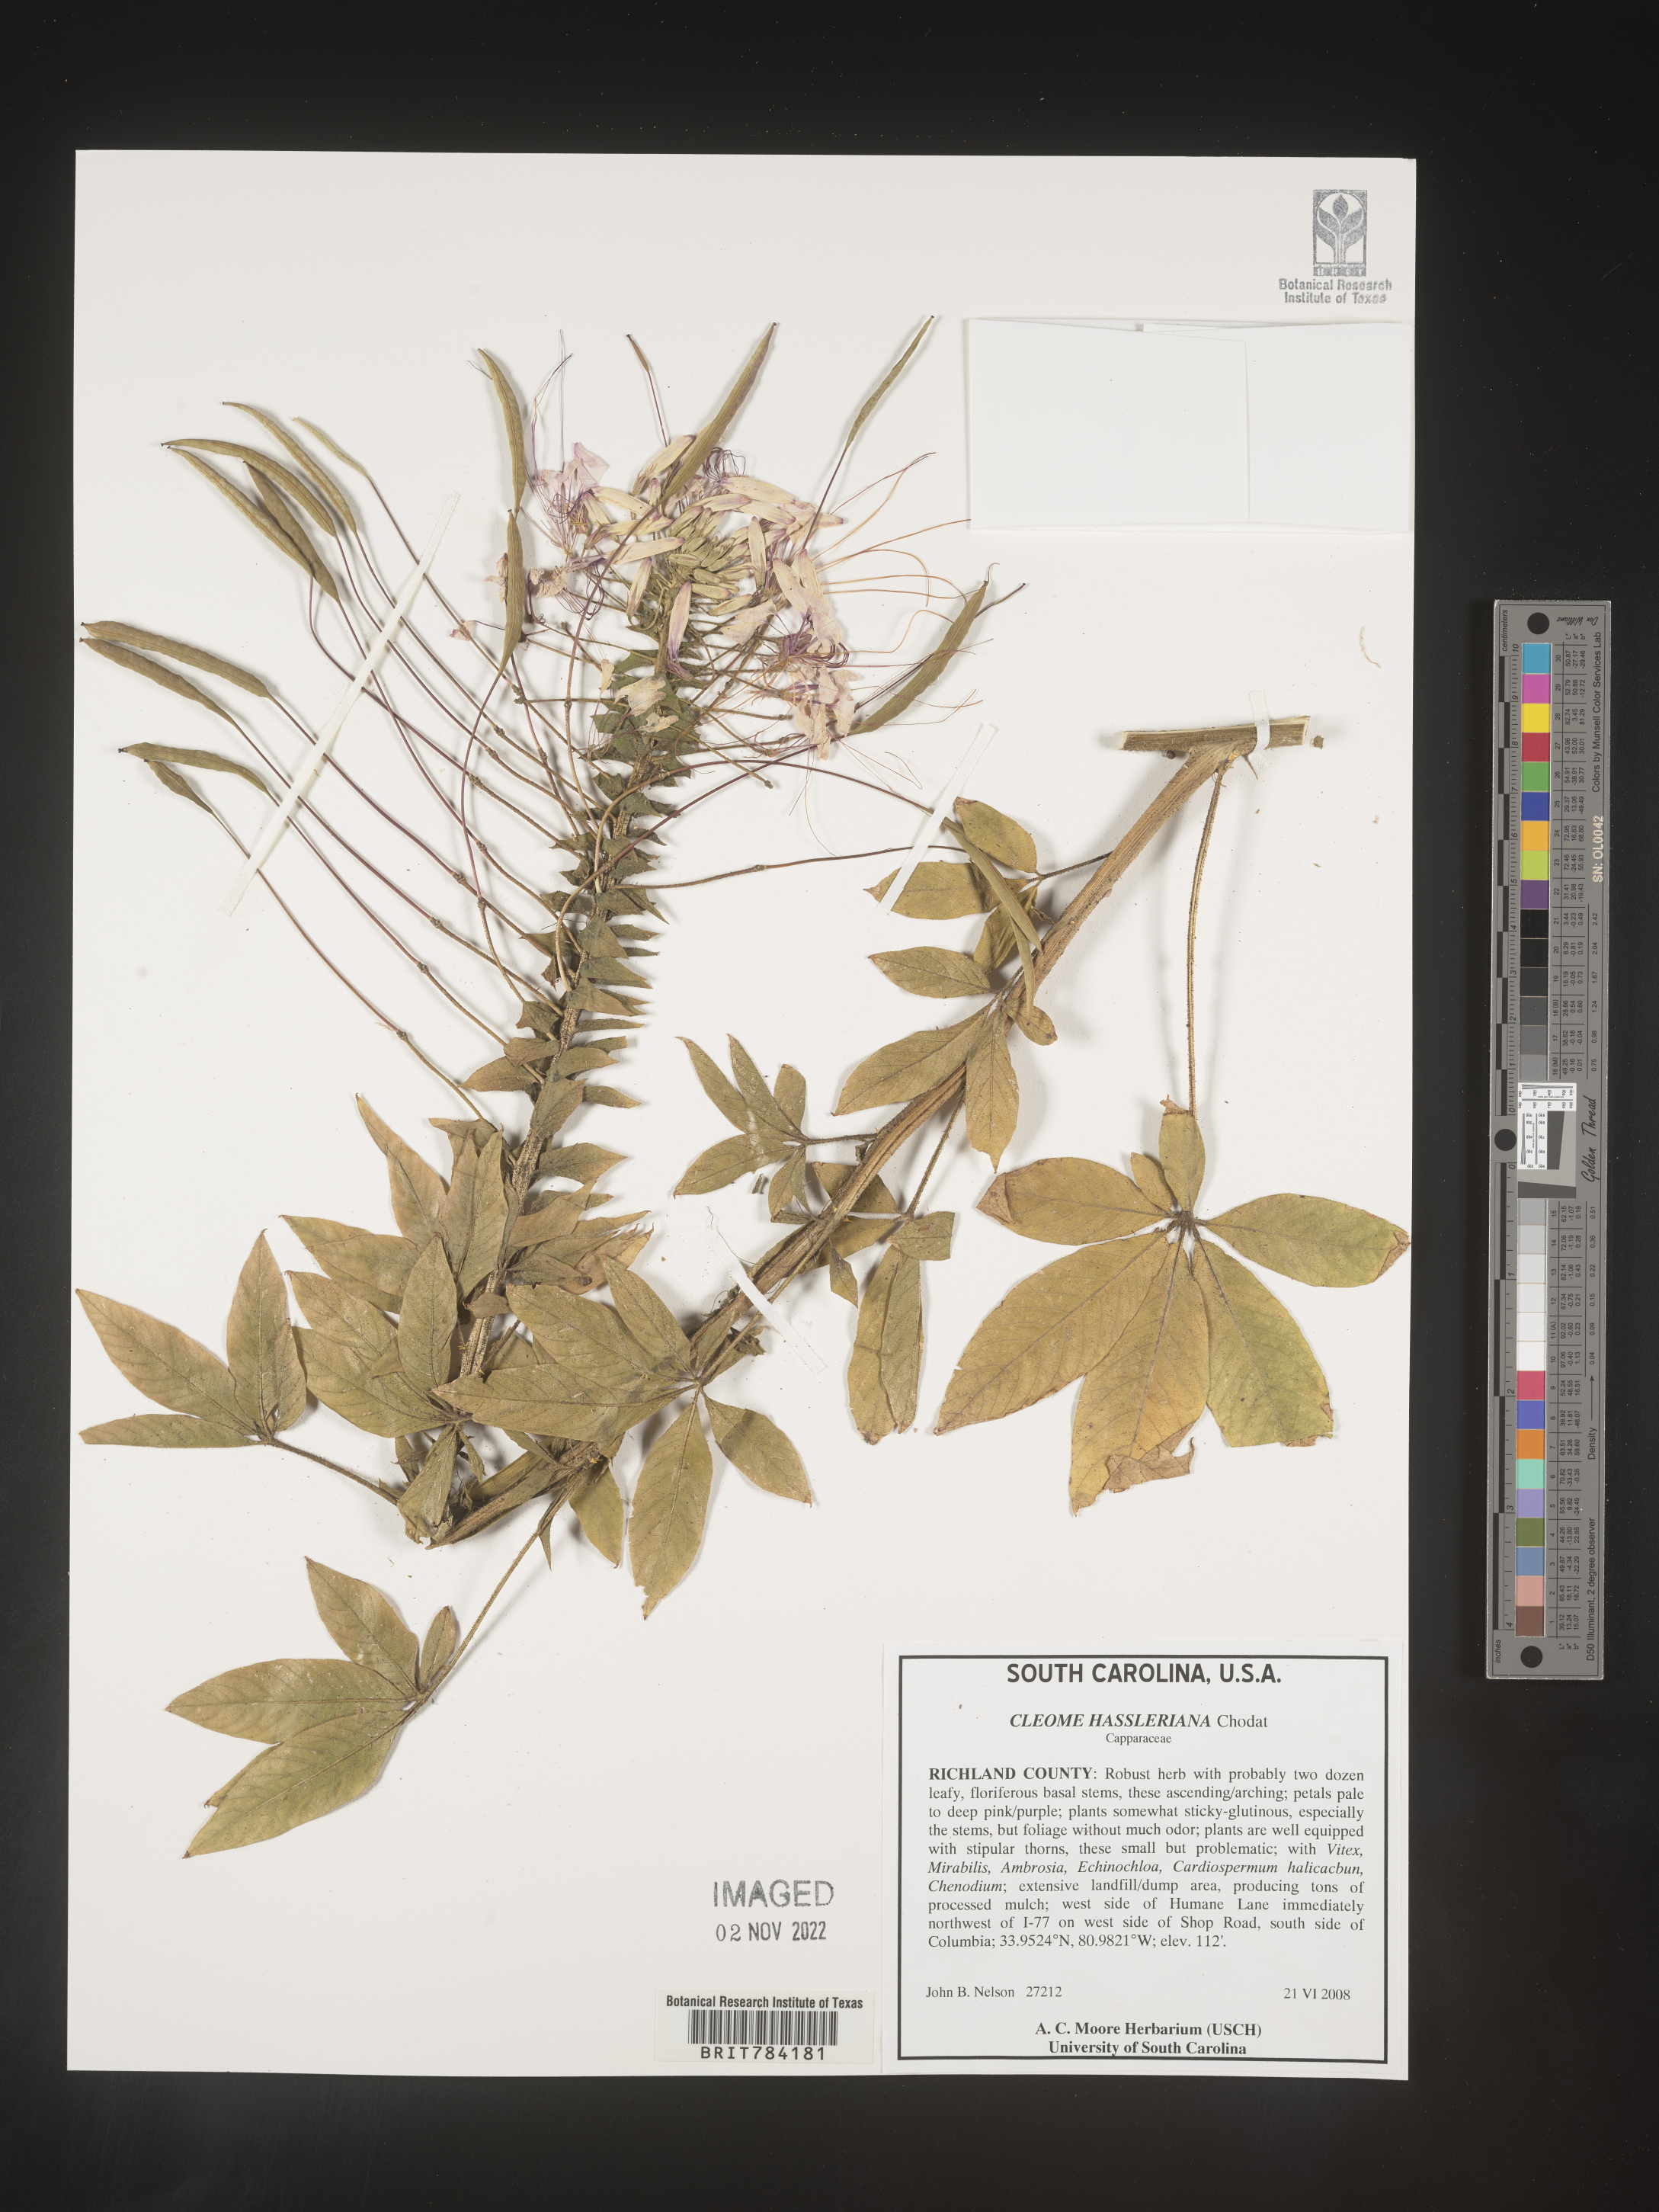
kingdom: Plantae
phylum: Tracheophyta
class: Magnoliopsida
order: Brassicales
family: Cleomaceae
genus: Cleome
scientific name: Cleome
